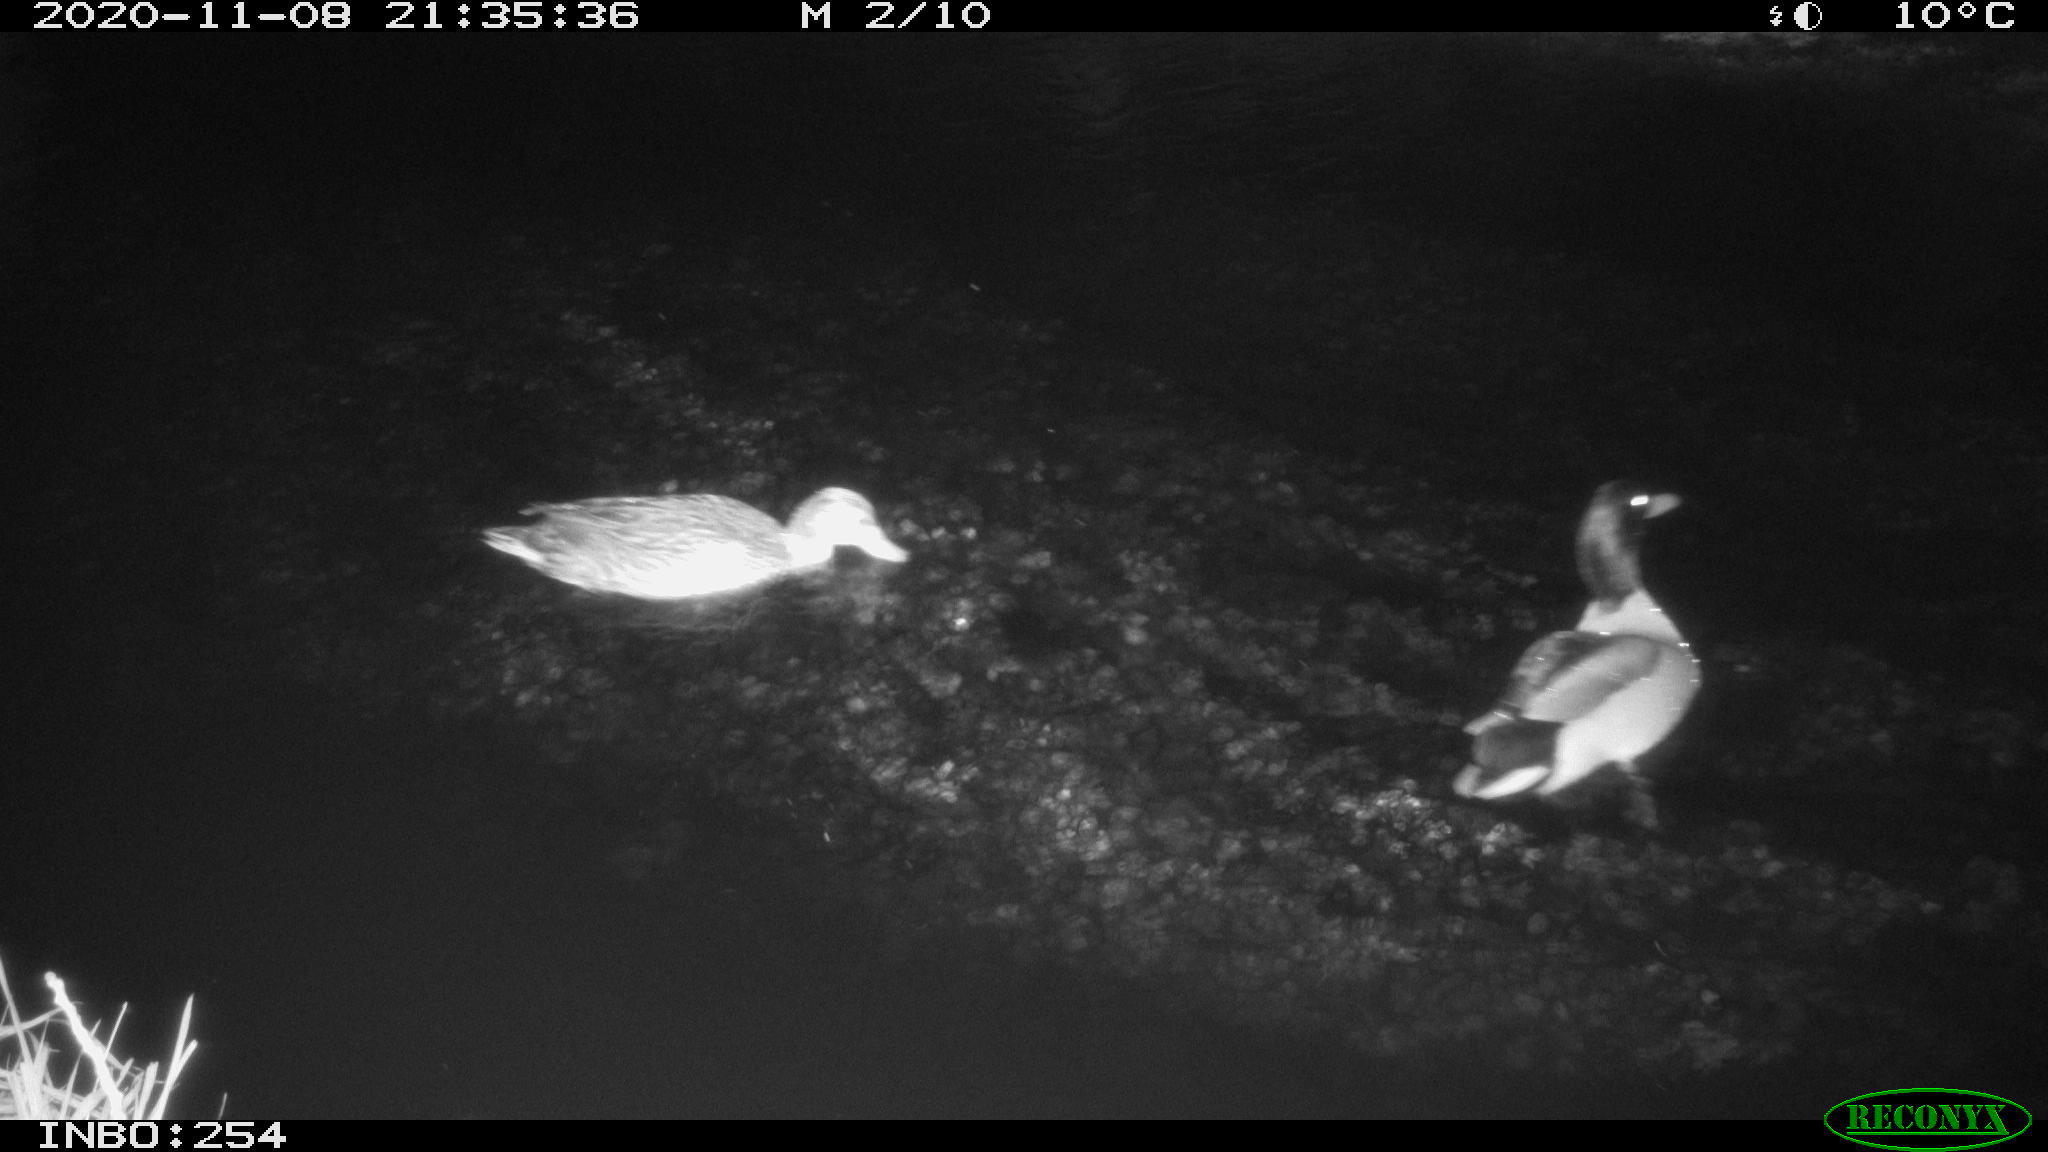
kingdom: Animalia
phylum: Chordata
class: Aves
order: Anseriformes
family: Anatidae
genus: Anas
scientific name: Anas platyrhynchos
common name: Mallard
